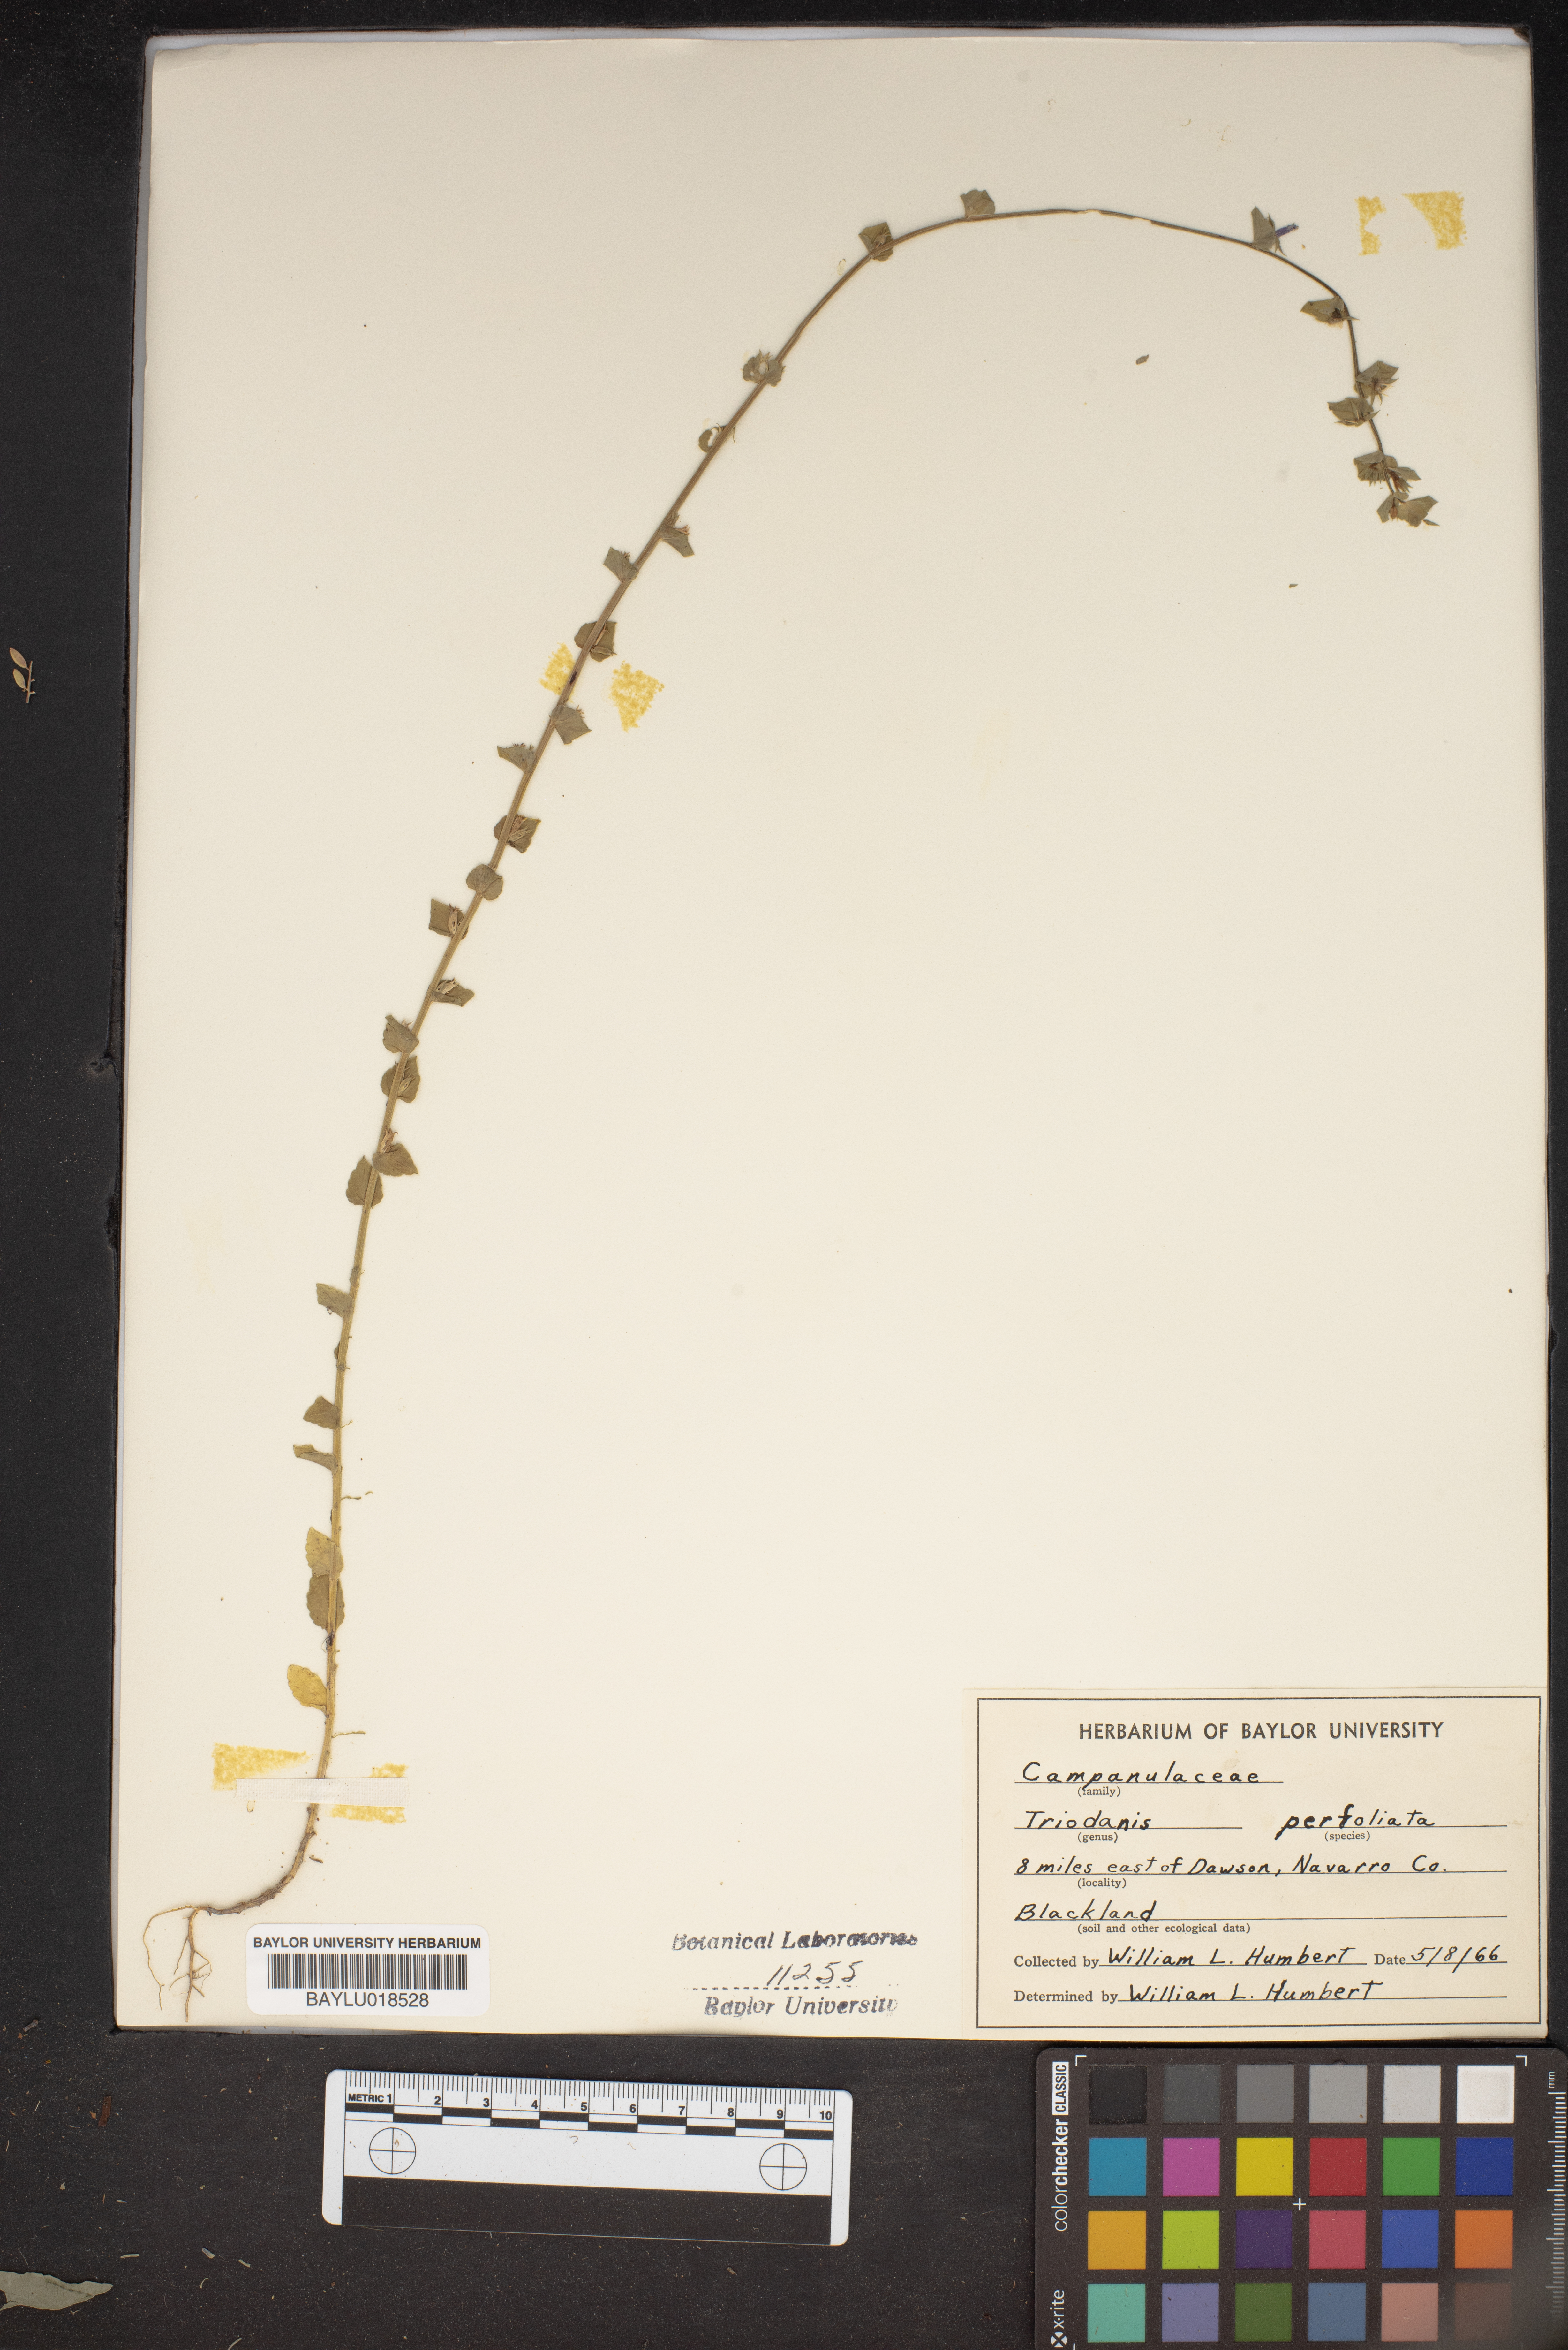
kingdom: Plantae
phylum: Tracheophyta
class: Magnoliopsida
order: Asterales
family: Campanulaceae
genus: Triodanis
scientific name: Triodanis perfoliata
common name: Clasping venus' looking-glass
